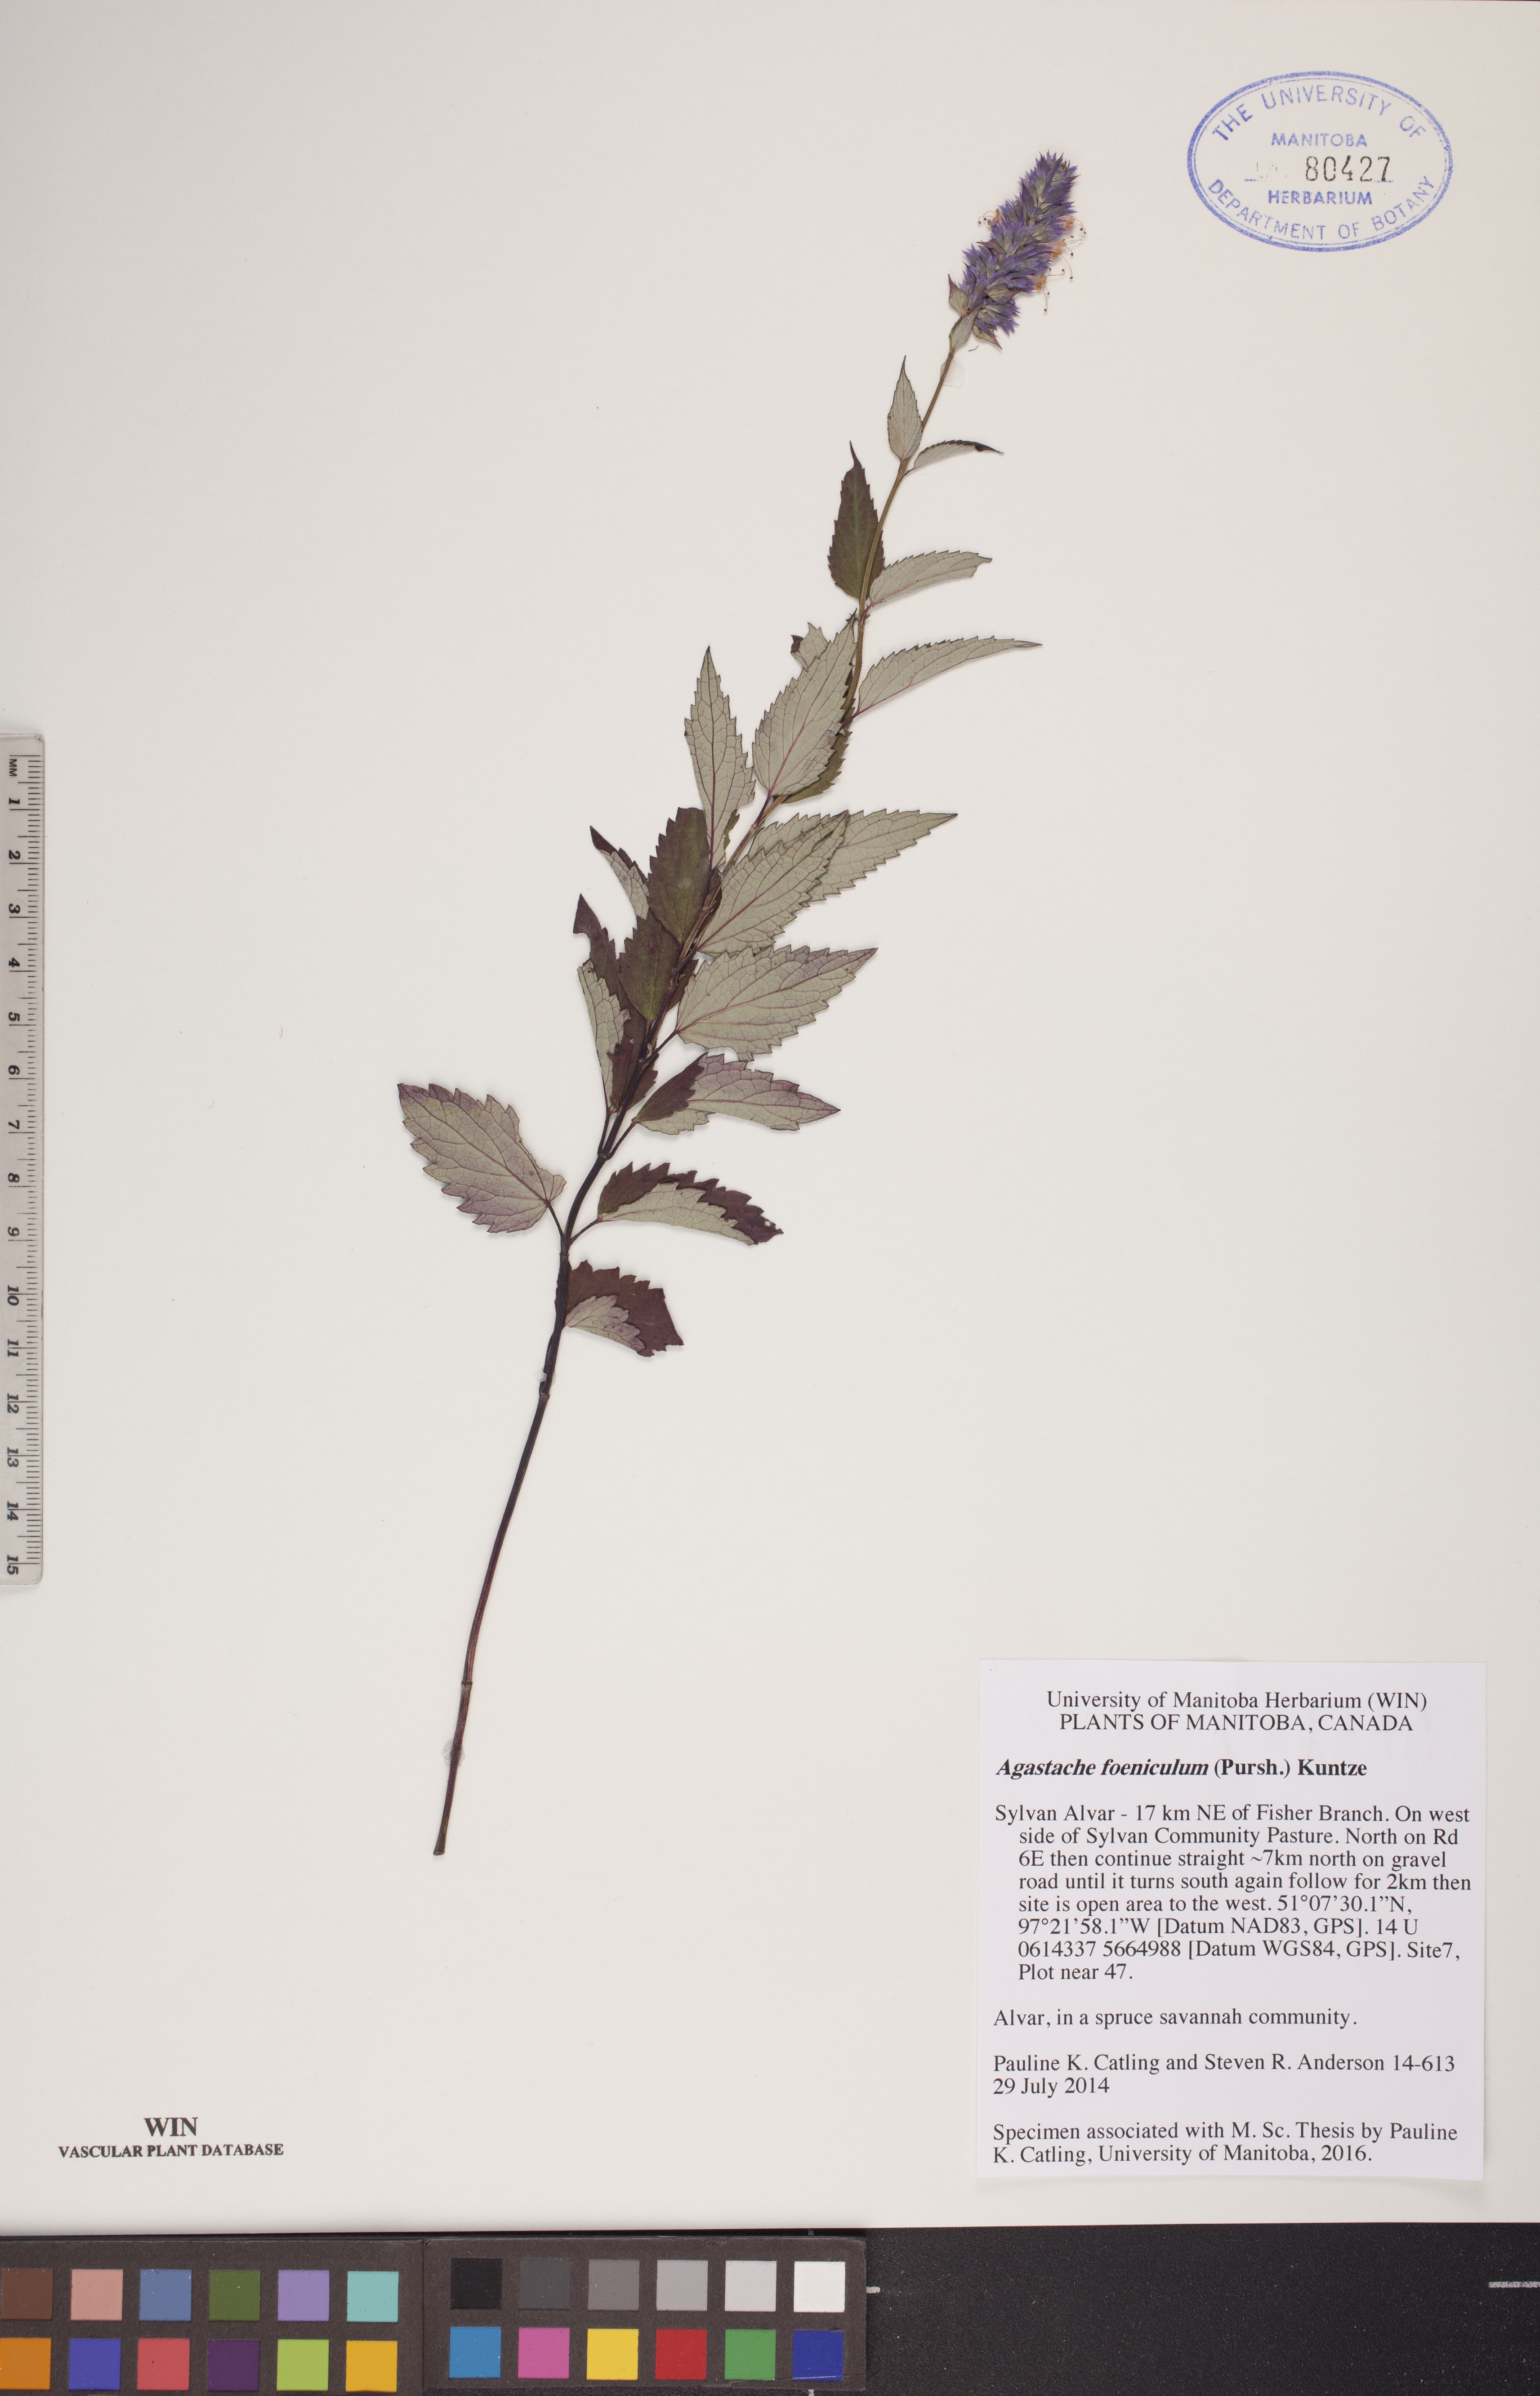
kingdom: Plantae
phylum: Tracheophyta
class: Magnoliopsida
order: Lamiales
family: Lamiaceae
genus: Agastache
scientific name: Agastache foeniculum
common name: Anise hyssop
